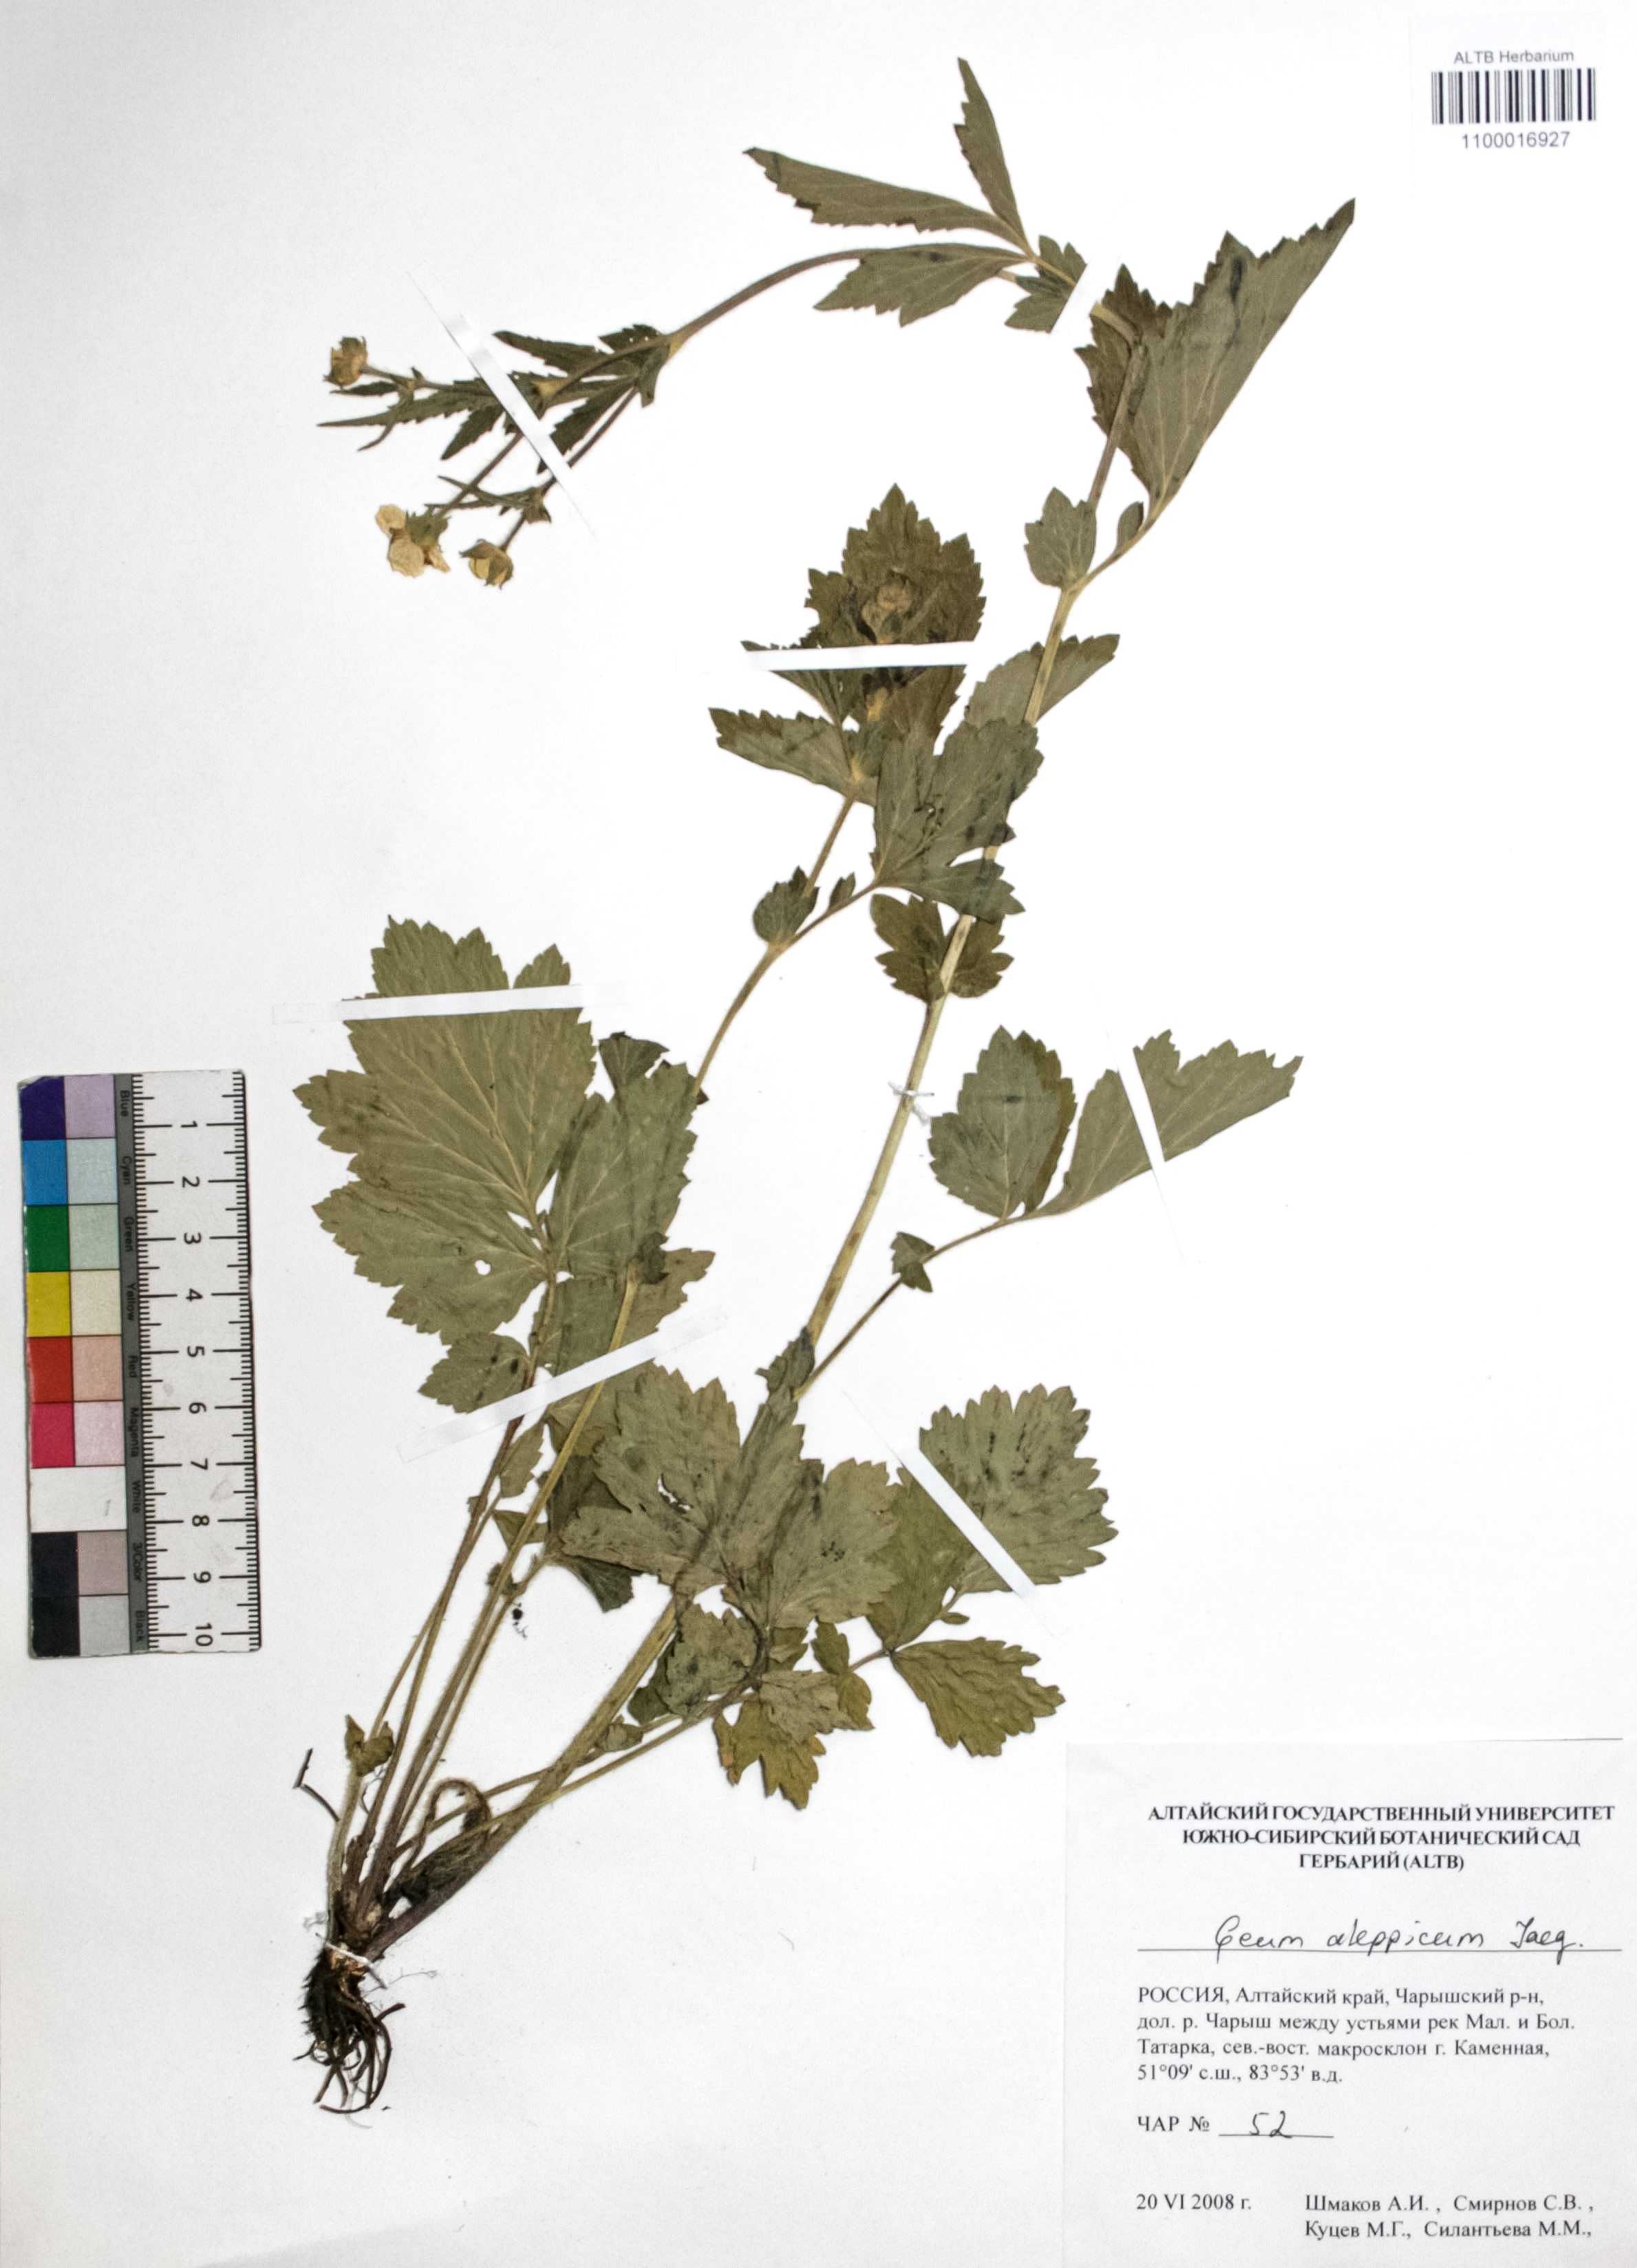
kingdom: Plantae
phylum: Tracheophyta
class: Magnoliopsida
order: Rosales
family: Rosaceae
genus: Geum
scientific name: Geum aleppicum
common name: Yellow avens
